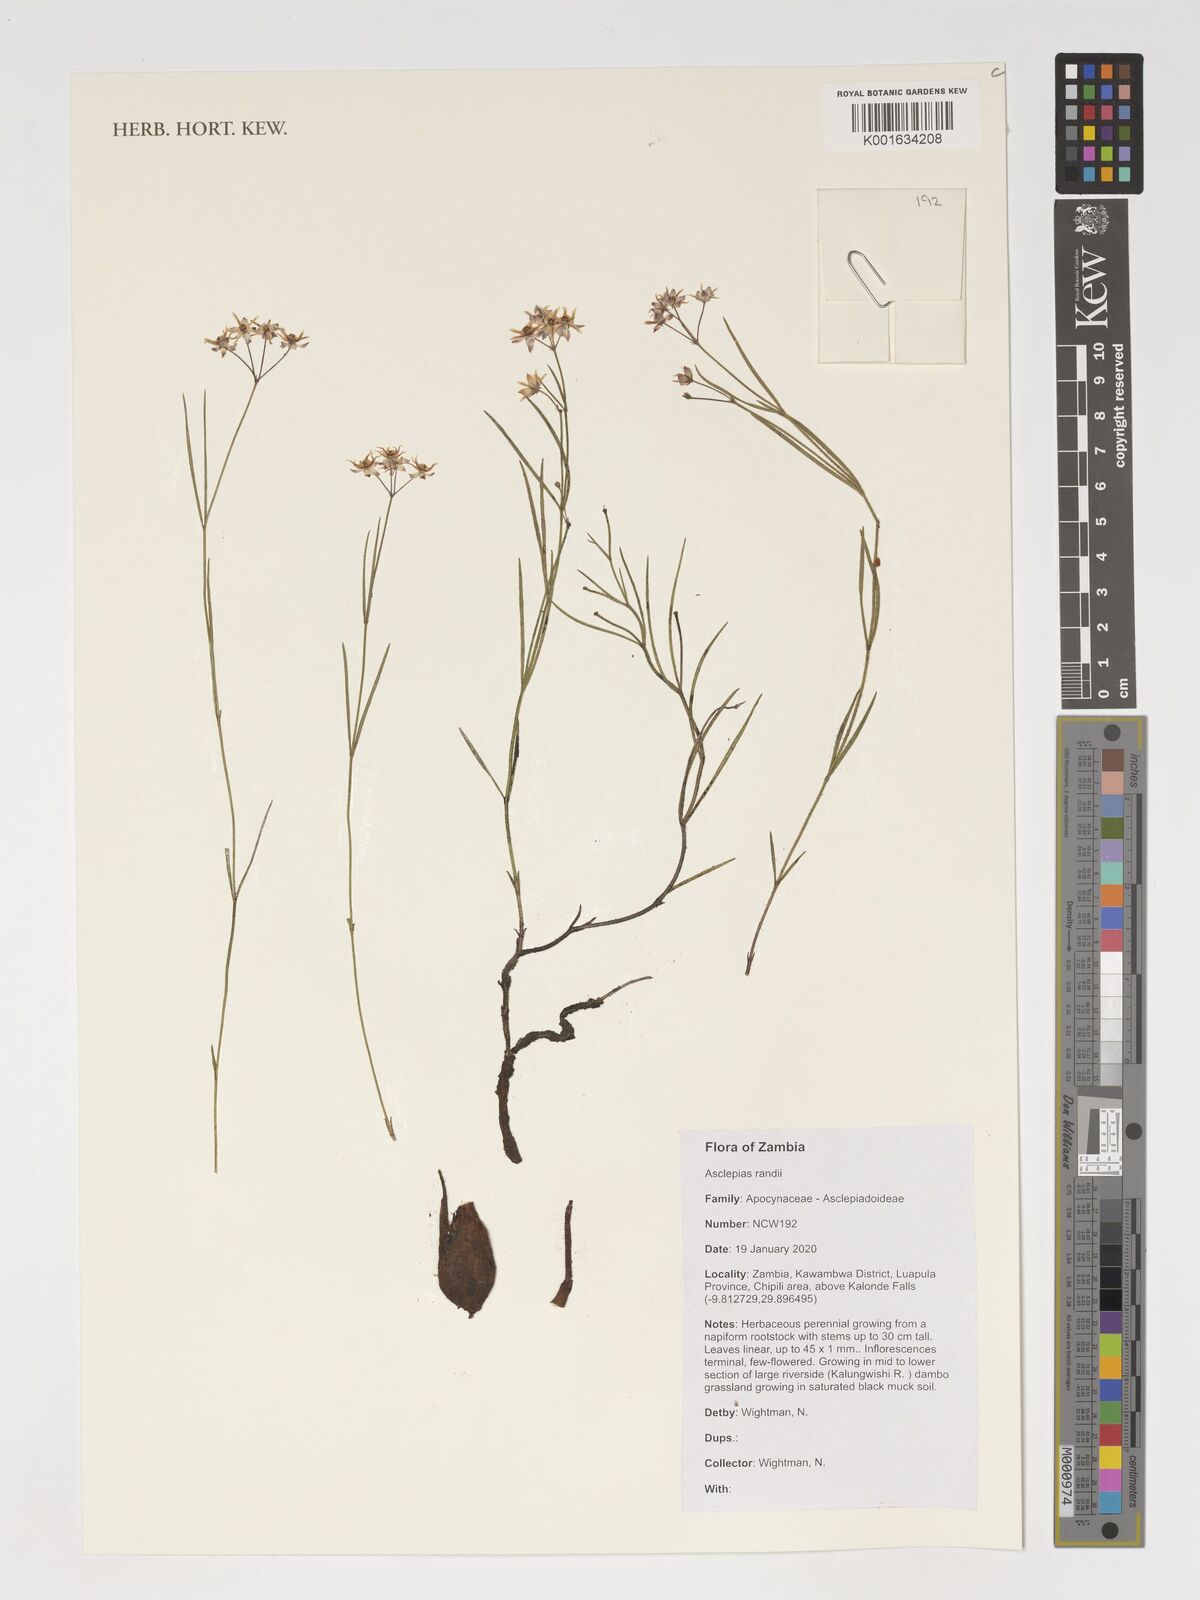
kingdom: Plantae
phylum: Tracheophyta
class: Magnoliopsida
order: Gentianales
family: Apocynaceae
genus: Asclepias
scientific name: Asclepias randii
